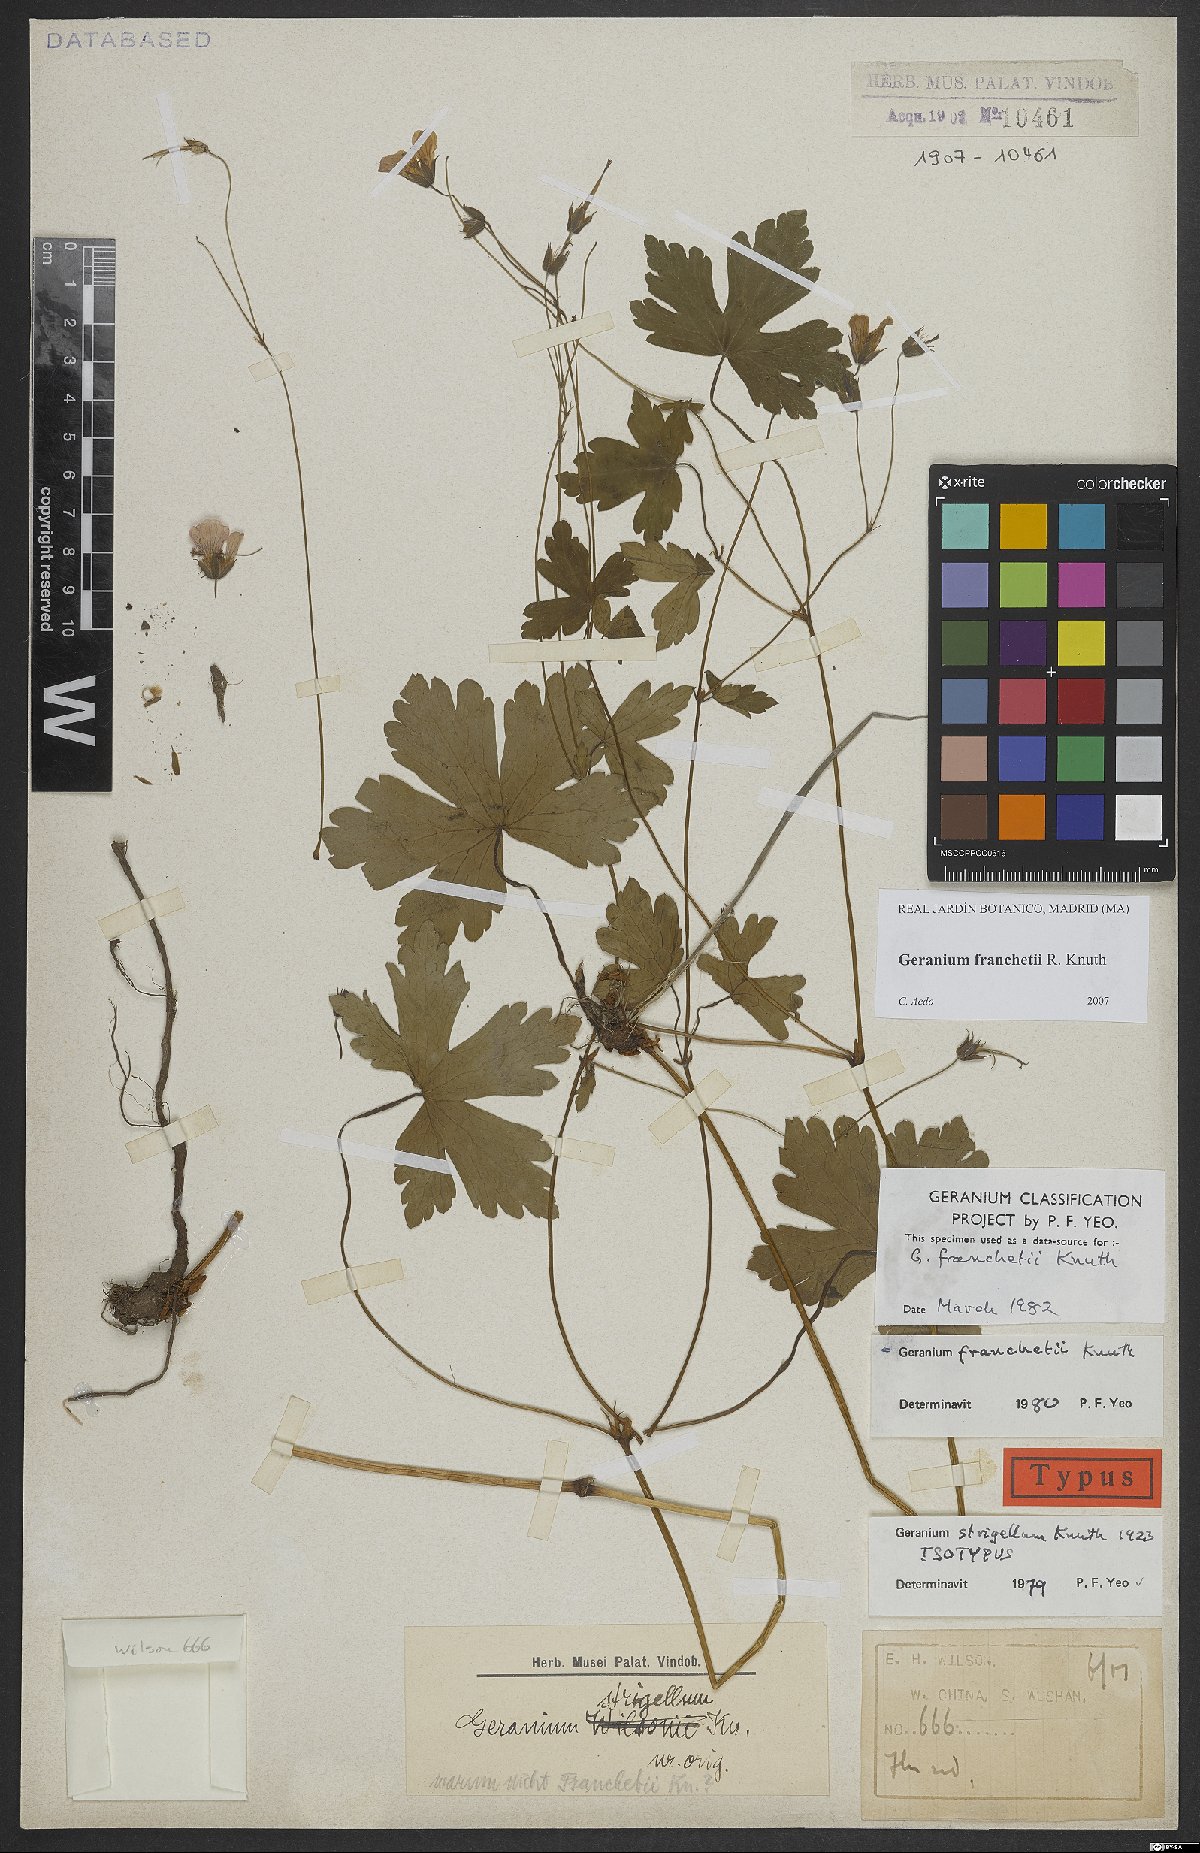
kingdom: Plantae
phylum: Tracheophyta
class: Magnoliopsida
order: Geraniales
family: Geraniaceae
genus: Geranium
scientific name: Geranium franchetii
